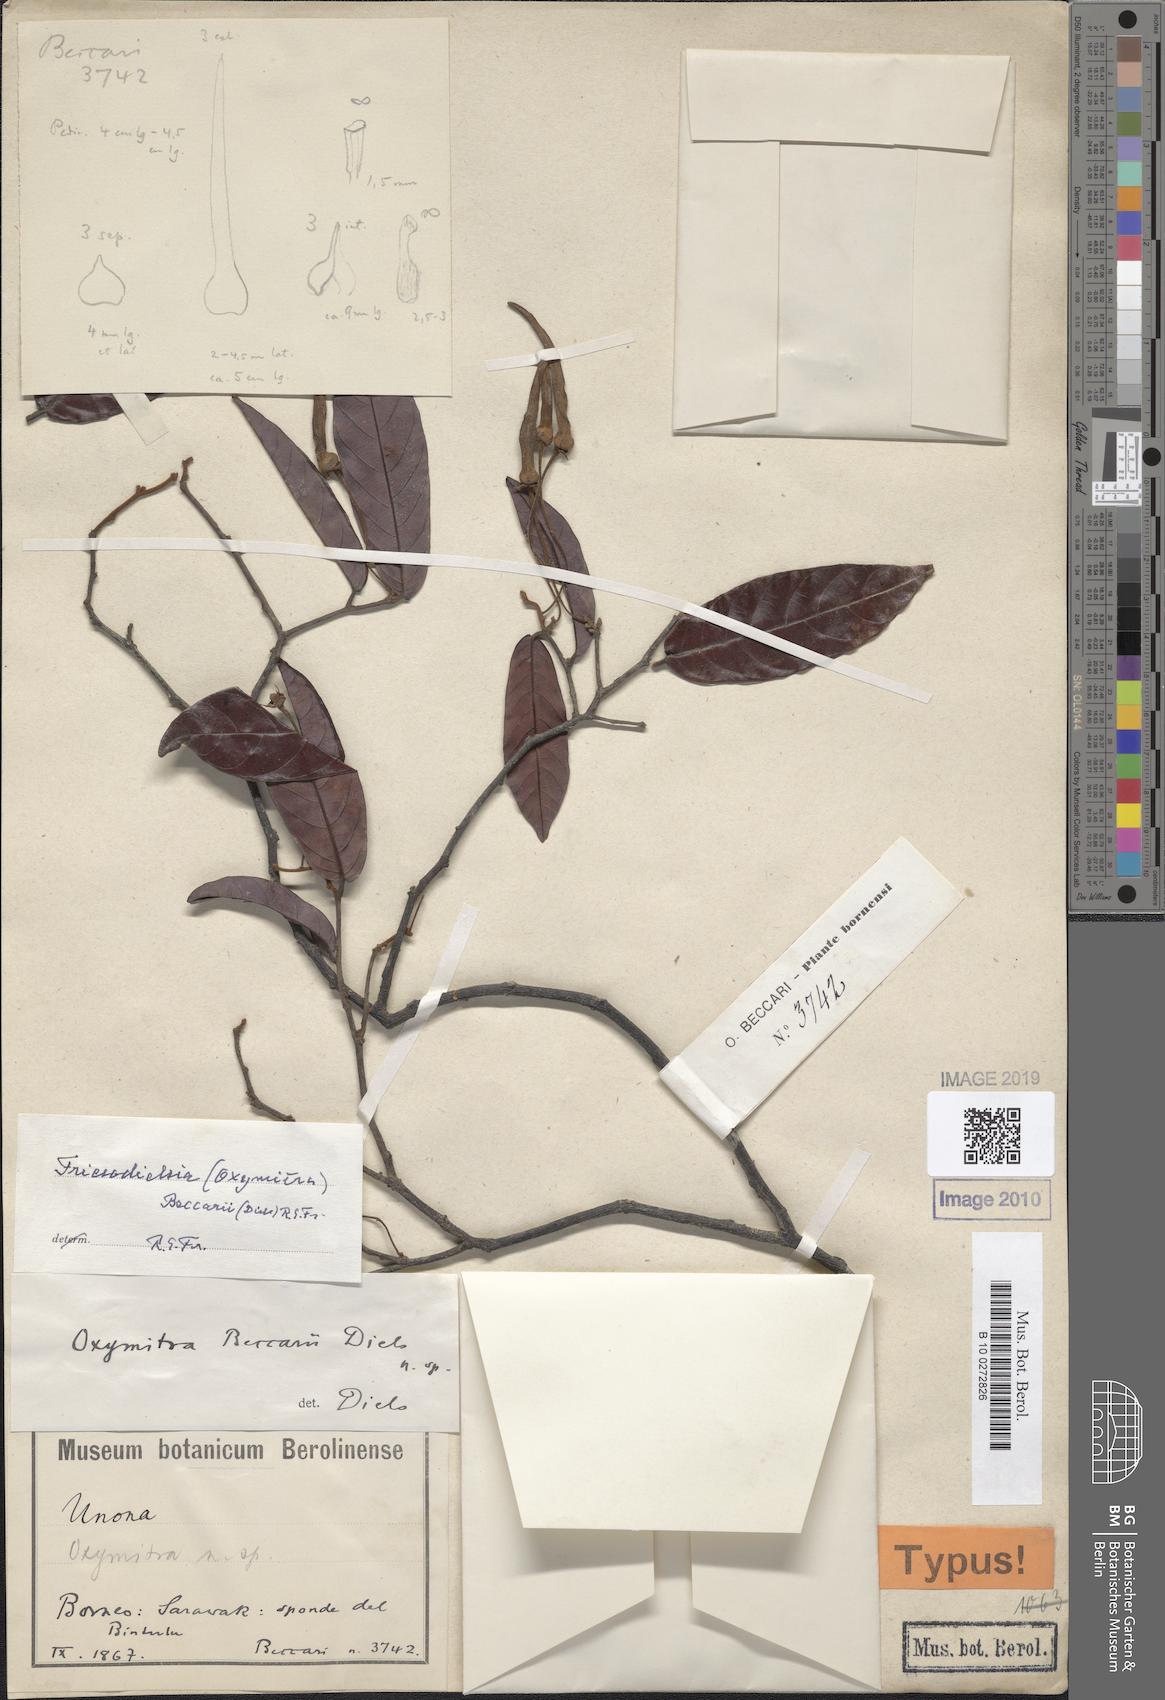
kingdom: Plantae
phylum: Tracheophyta
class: Magnoliopsida
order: Magnoliales
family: Annonaceae
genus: Friesodielsia
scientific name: Friesodielsia borneensis
